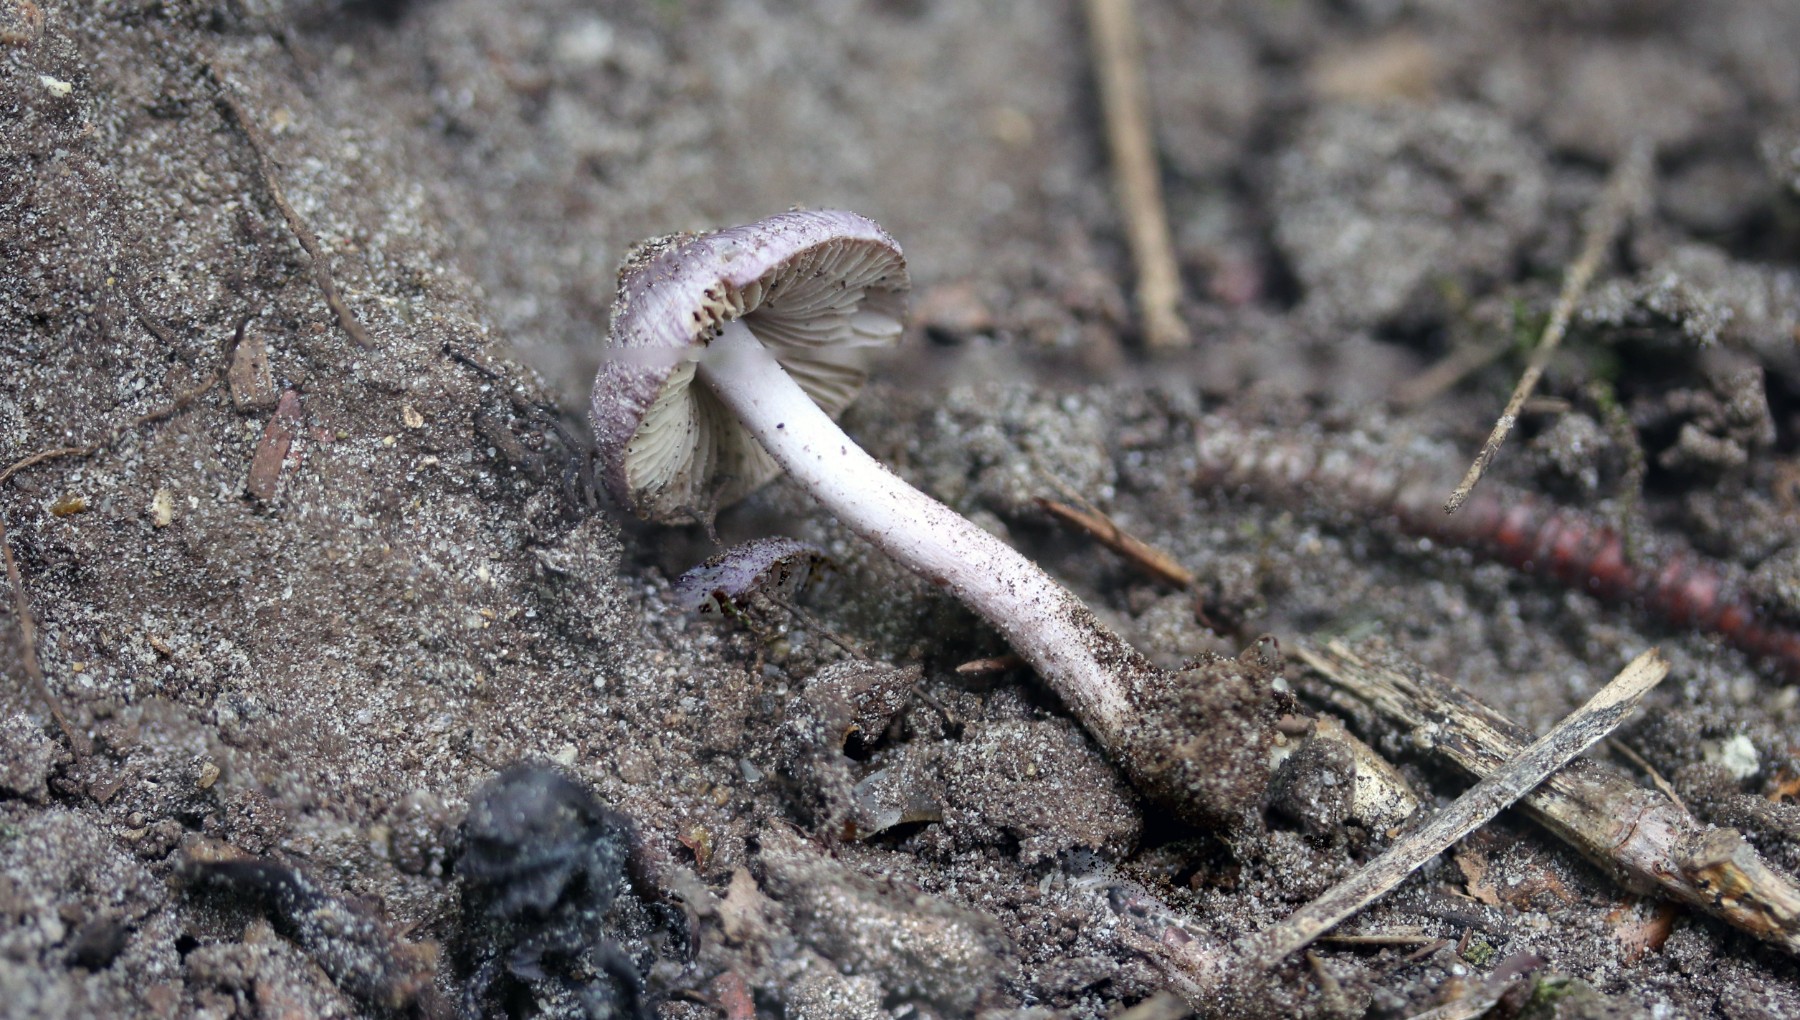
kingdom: Fungi
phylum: Basidiomycota
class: Agaricomycetes
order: Agaricales
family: Inocybaceae
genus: Inocybe
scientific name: Inocybe geophylla
